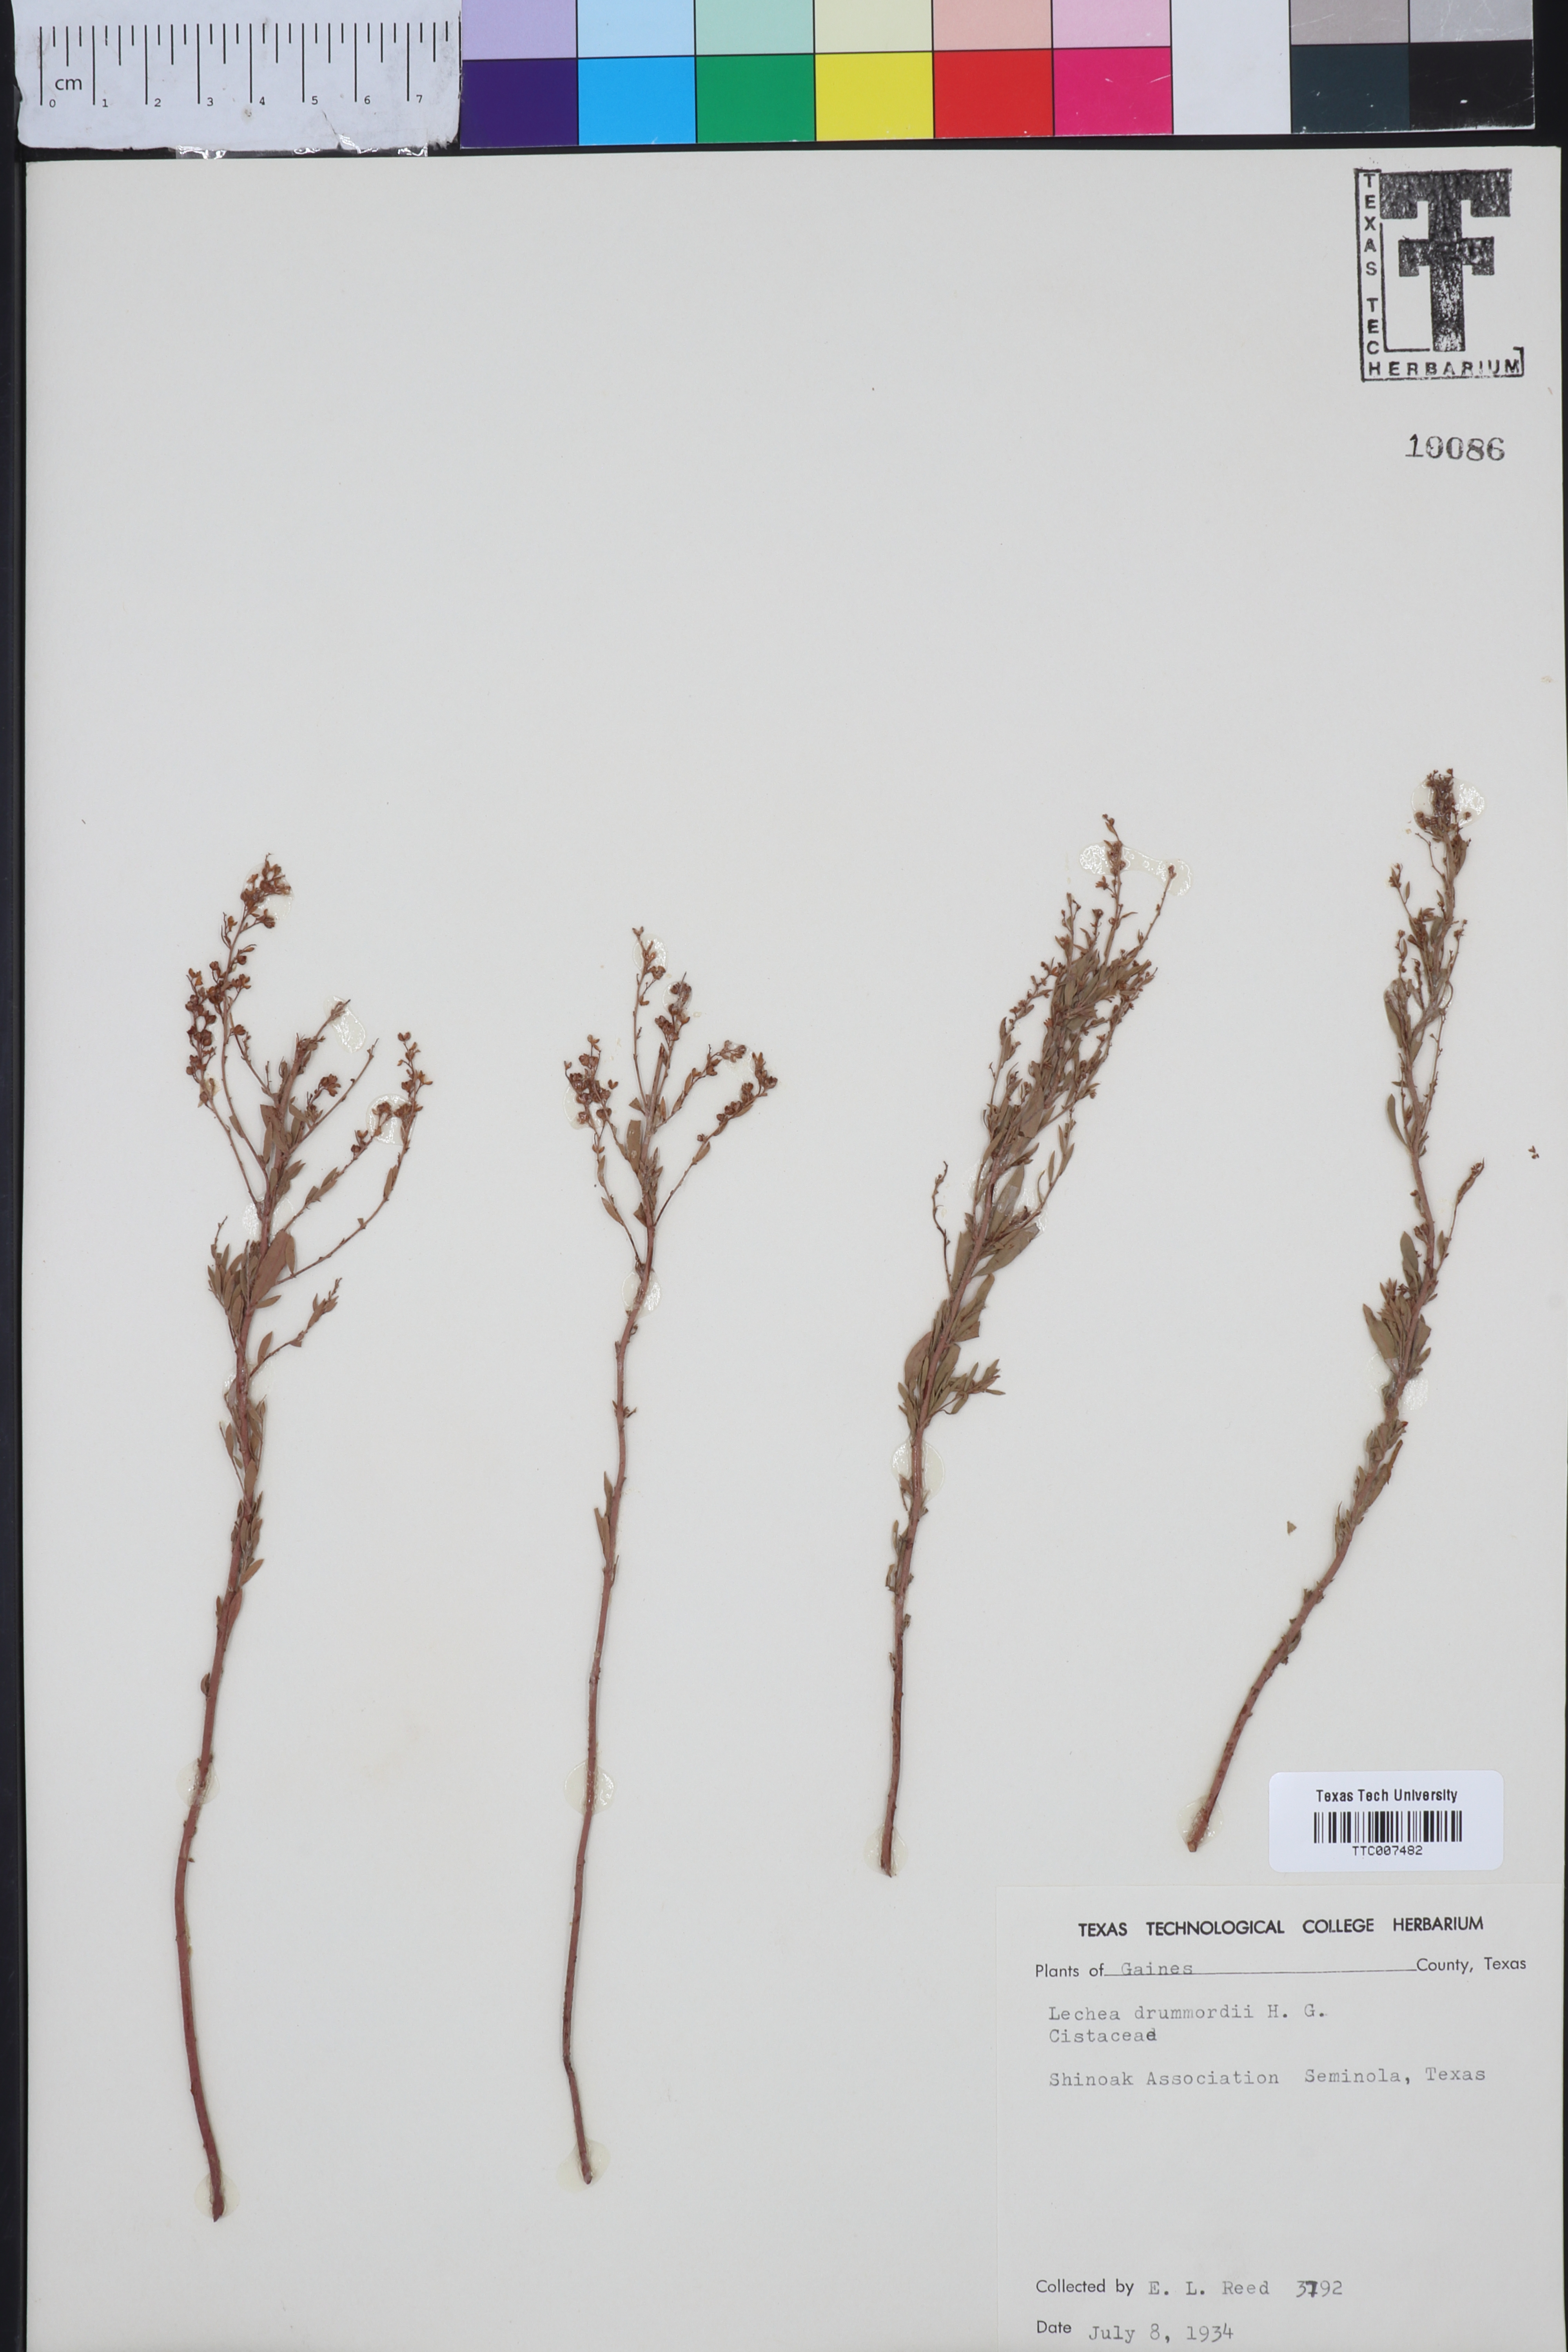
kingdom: Plantae
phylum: Tracheophyta
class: Magnoliopsida
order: Malvales
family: Cistaceae
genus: Lechea
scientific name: Lechea drummondii
